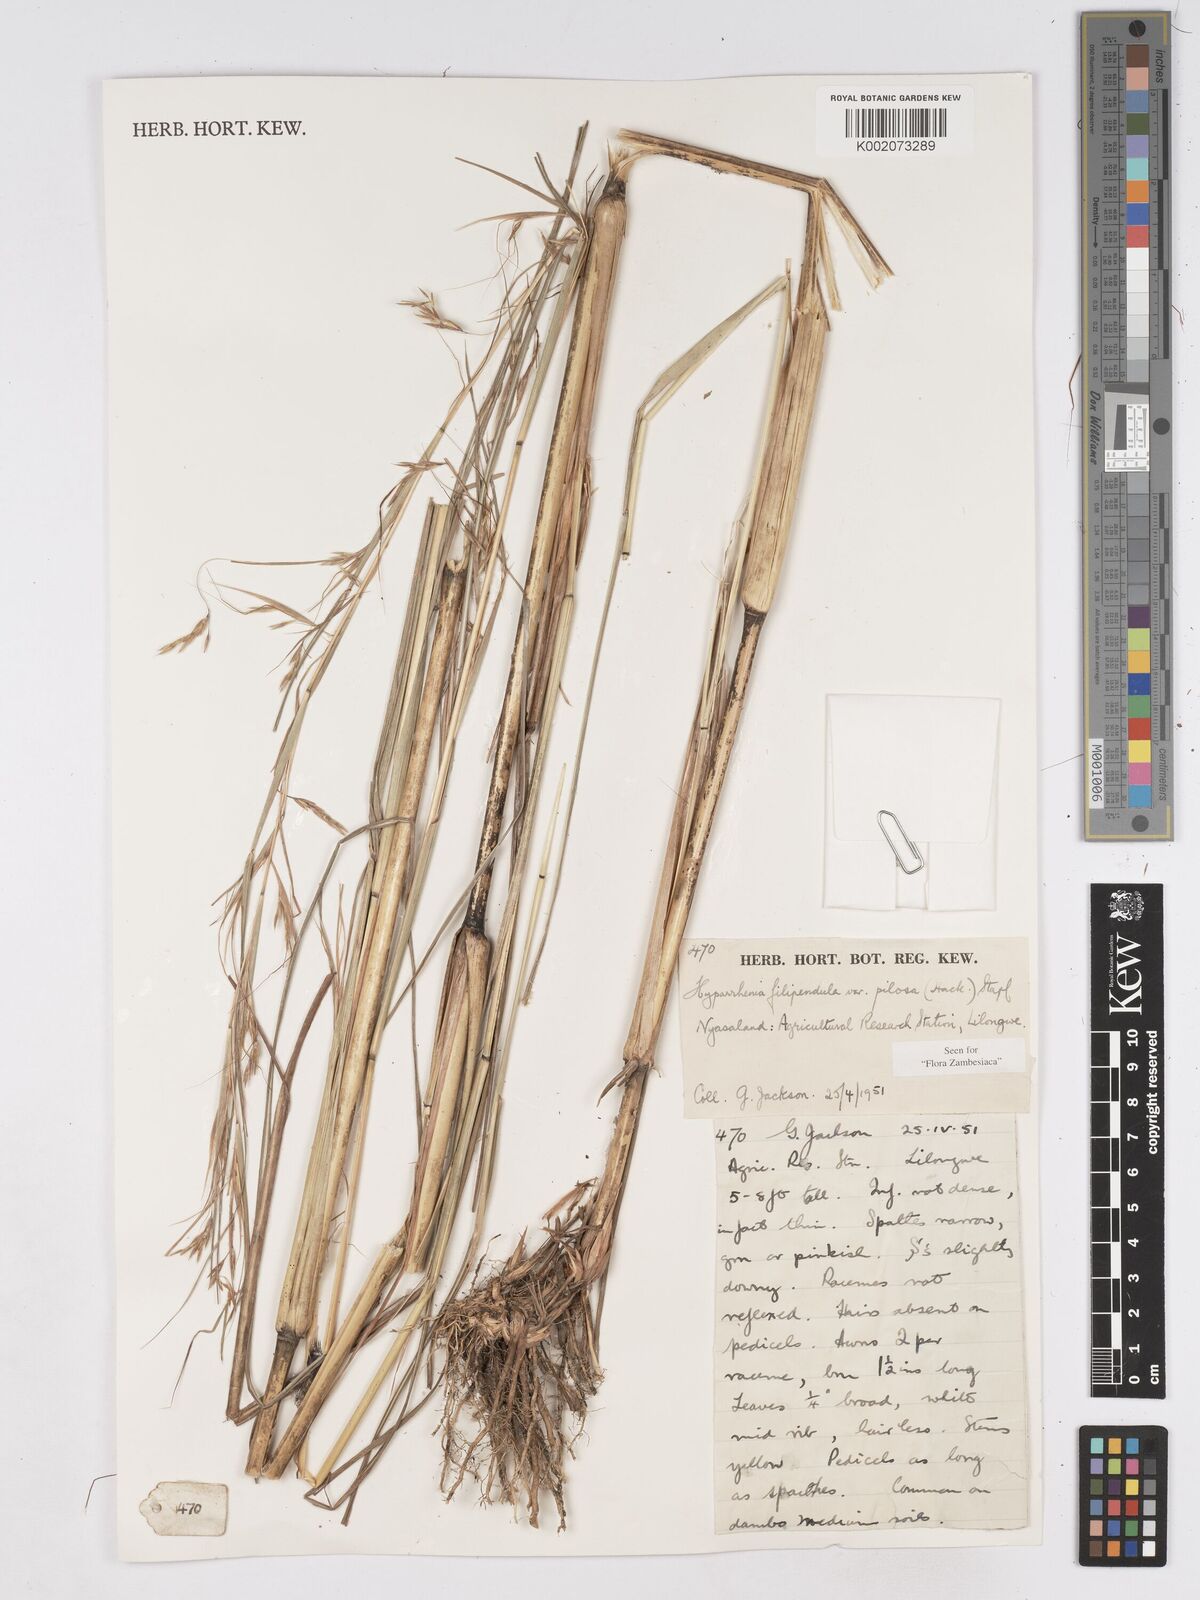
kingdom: Plantae
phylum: Tracheophyta
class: Liliopsida
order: Poales
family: Poaceae
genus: Hyparrhenia
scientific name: Hyparrhenia filipendula
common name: Tambookie grass
